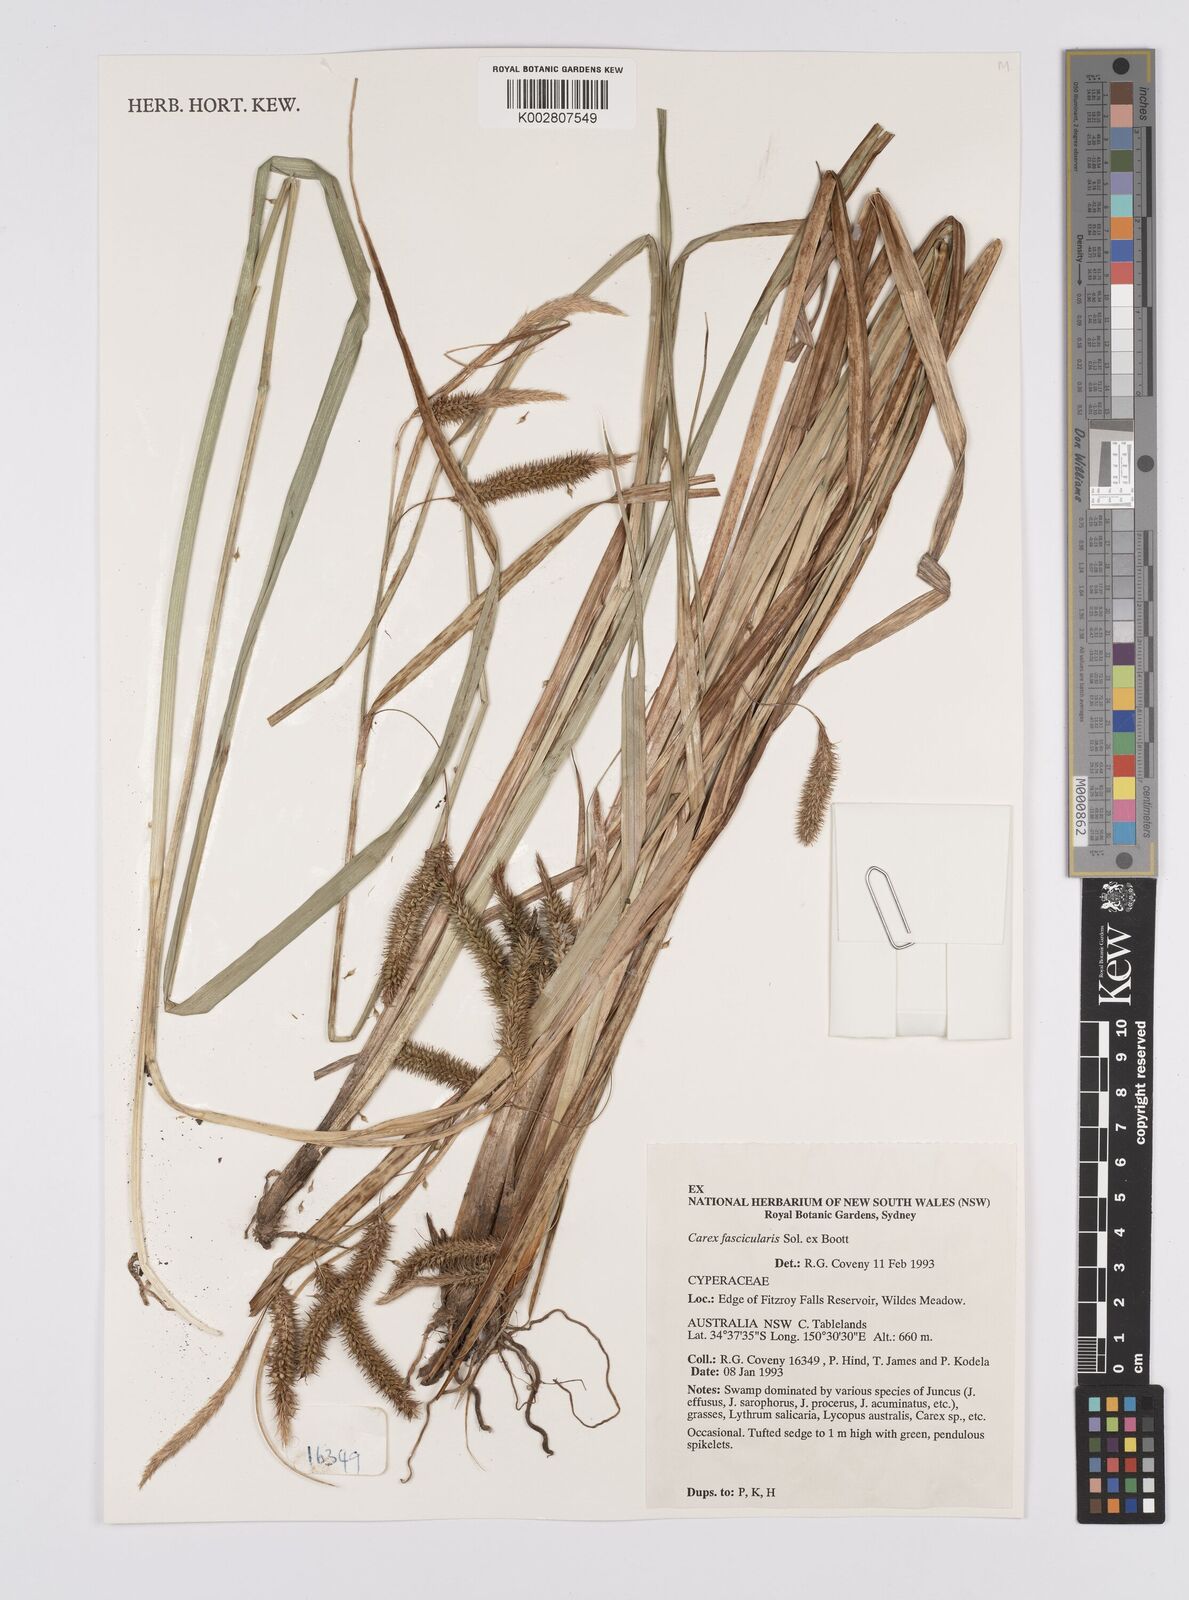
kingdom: Plantae
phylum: Tracheophyta
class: Liliopsida
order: Poales
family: Cyperaceae
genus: Carex
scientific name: Carex fascicularis
